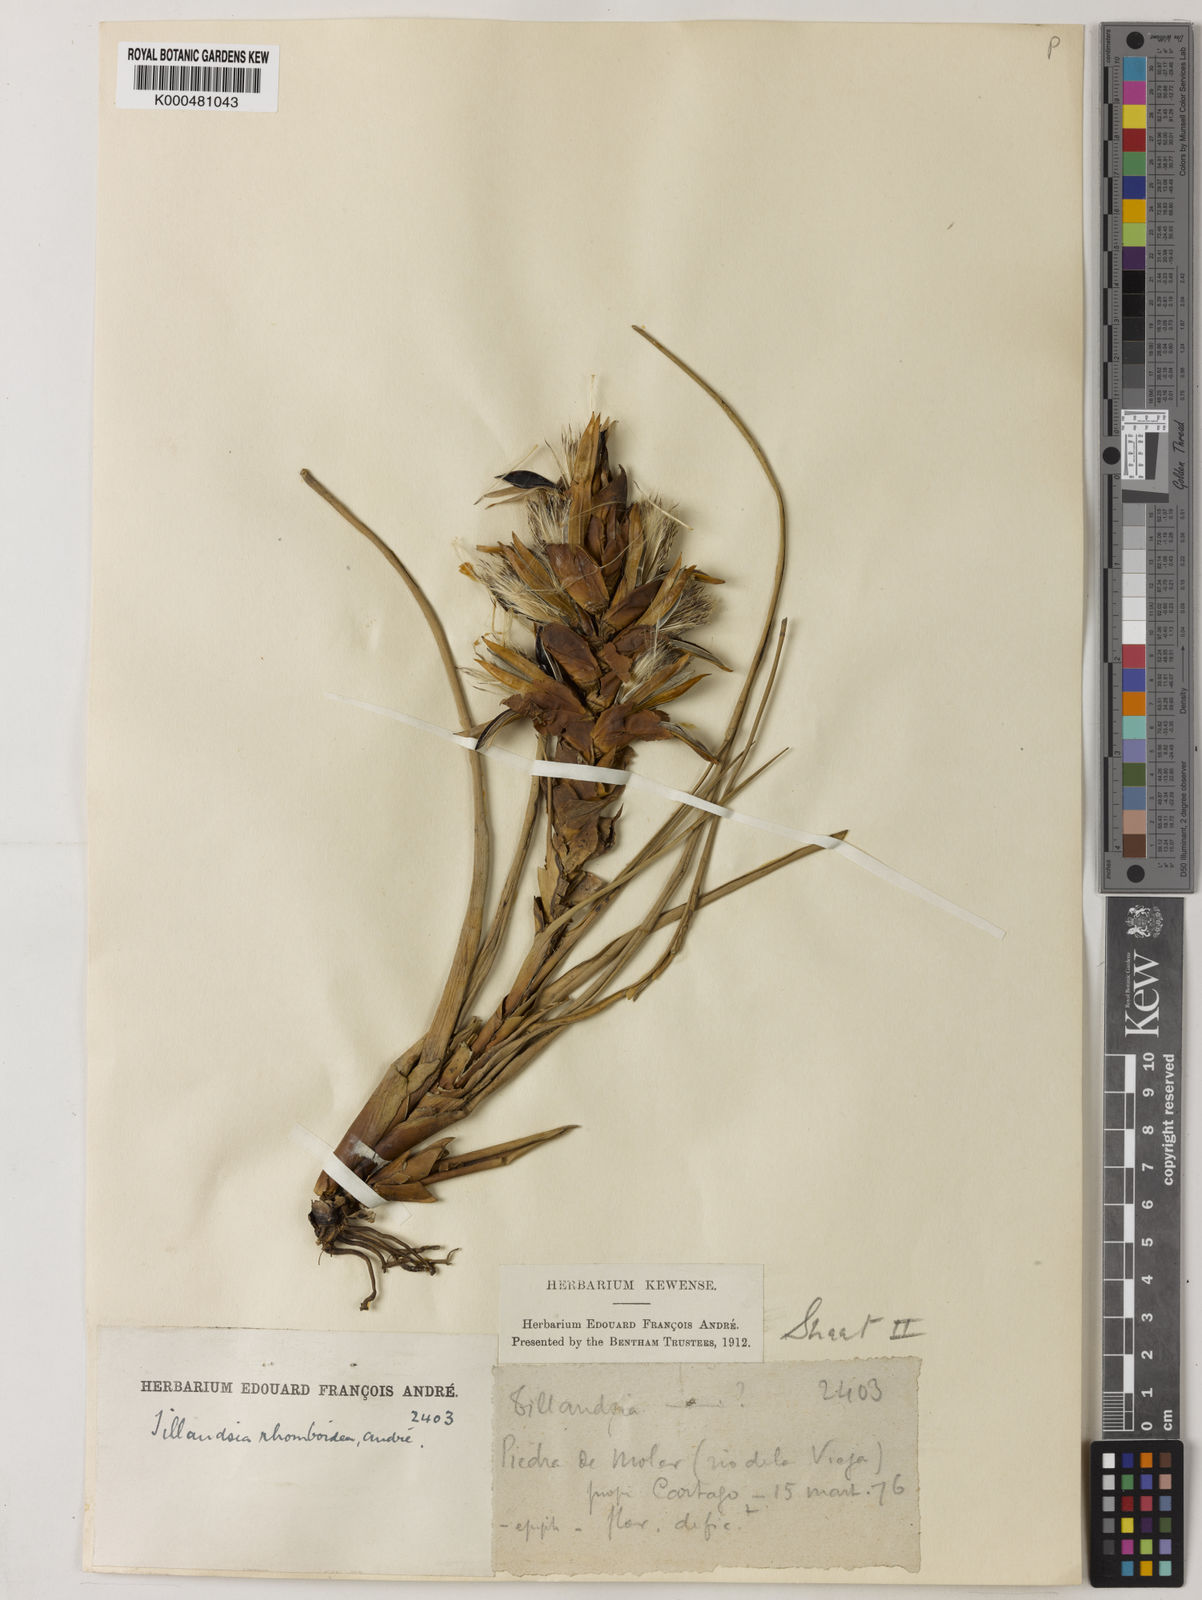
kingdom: Plantae
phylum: Tracheophyta
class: Liliopsida
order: Poales
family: Bromeliaceae
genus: Tillandsia
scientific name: Tillandsia
